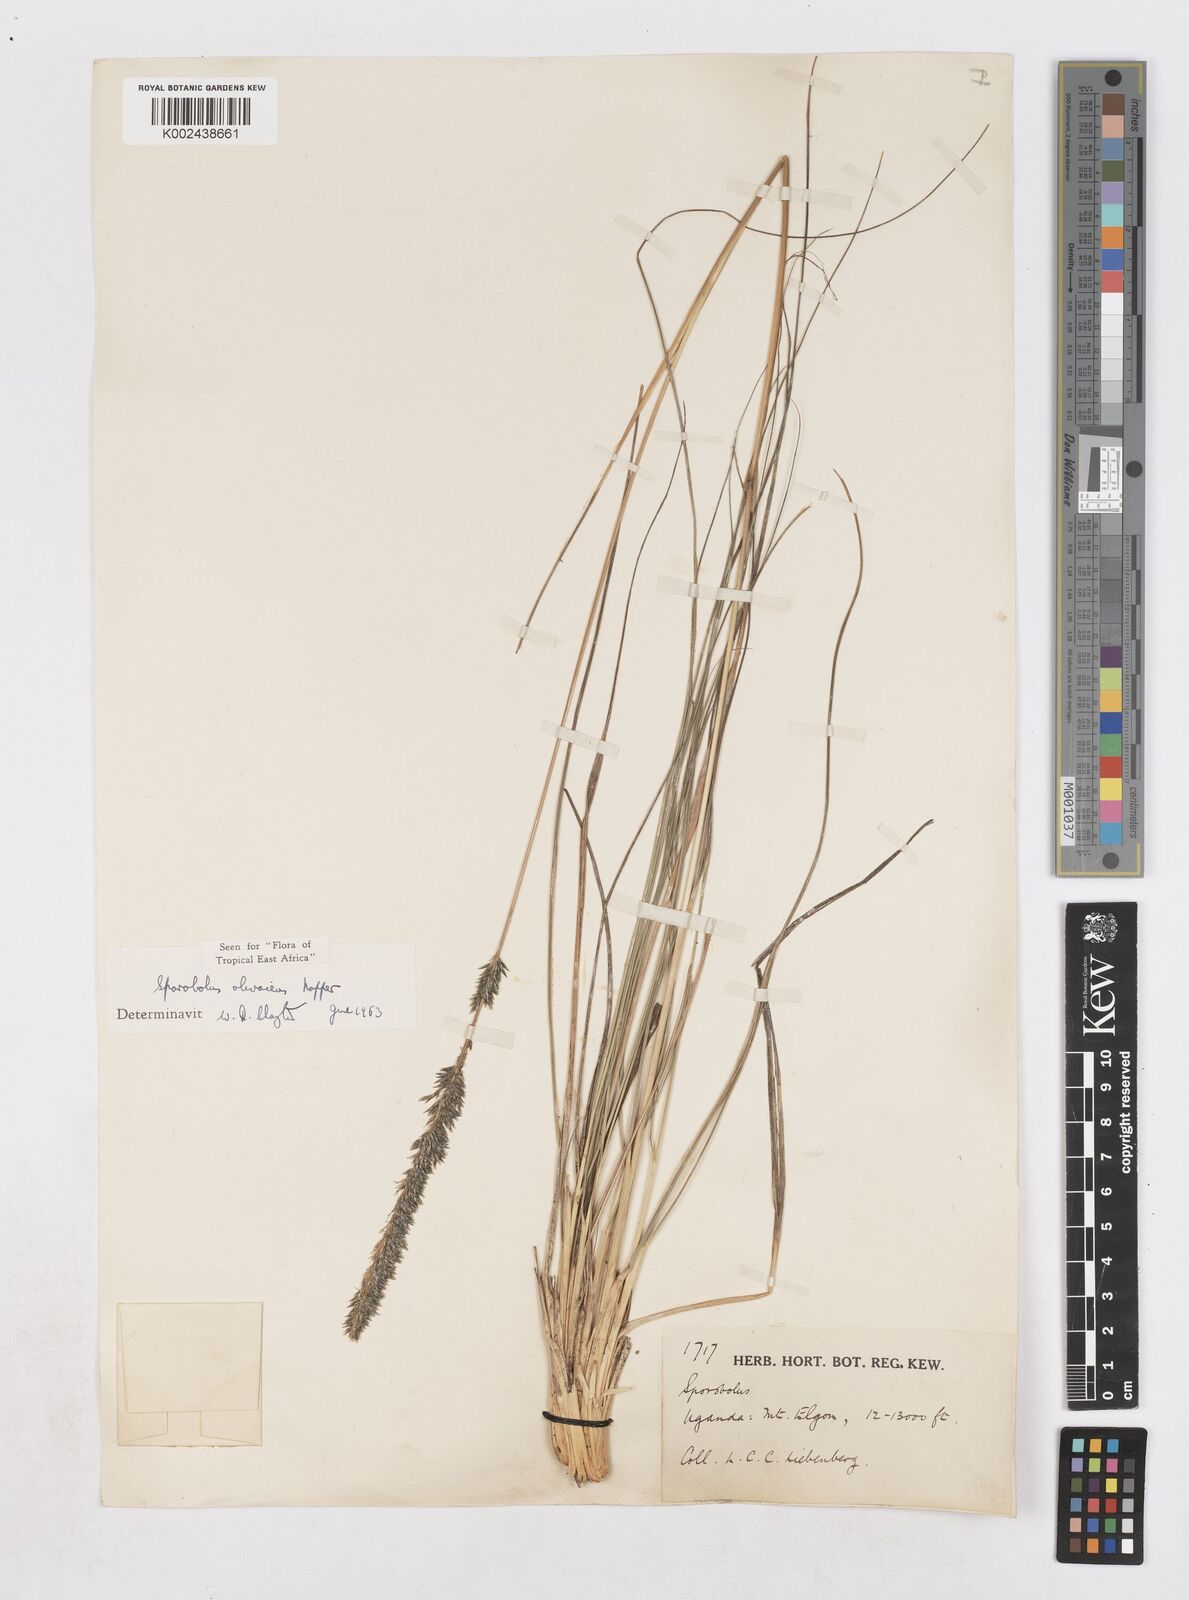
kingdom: Plantae
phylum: Tracheophyta
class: Liliopsida
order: Poales
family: Poaceae
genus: Sporobolus
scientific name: Sporobolus olivaceus
